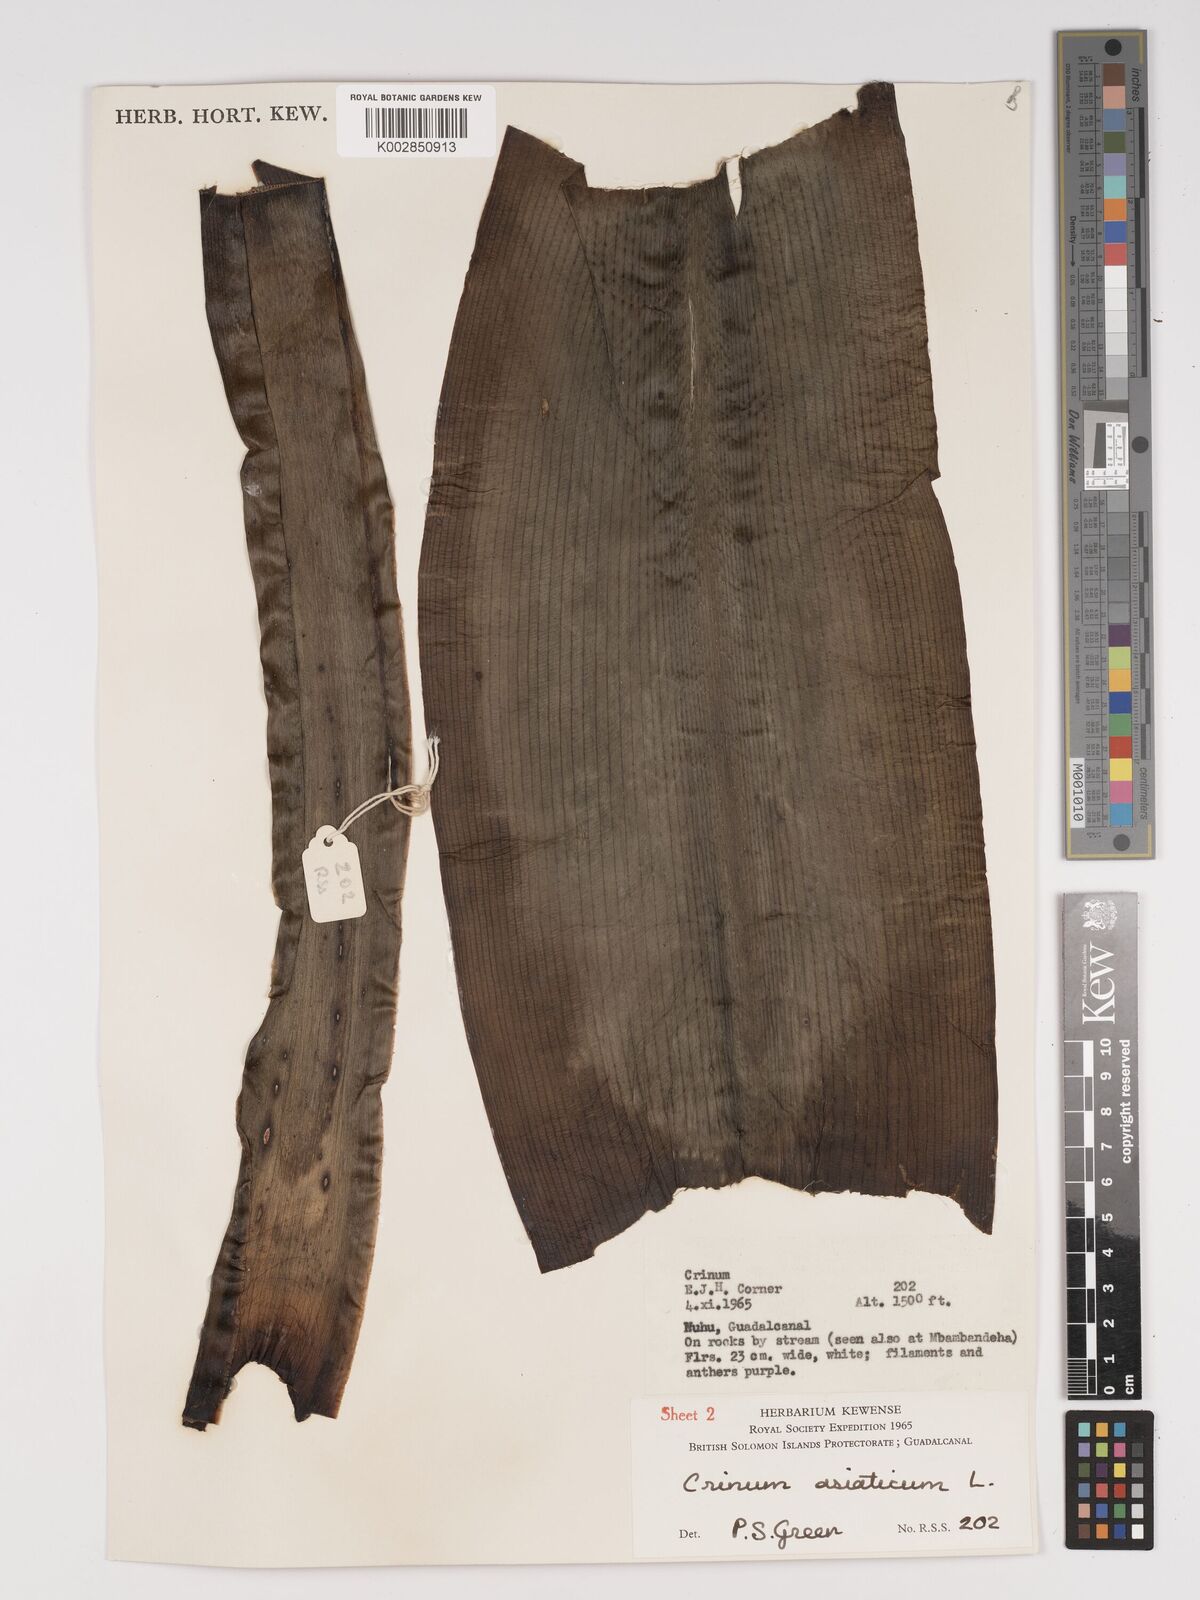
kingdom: Plantae
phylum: Tracheophyta
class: Liliopsida
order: Asparagales
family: Amaryllidaceae
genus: Crinum
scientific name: Crinum asiaticum
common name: Poisonbulb
